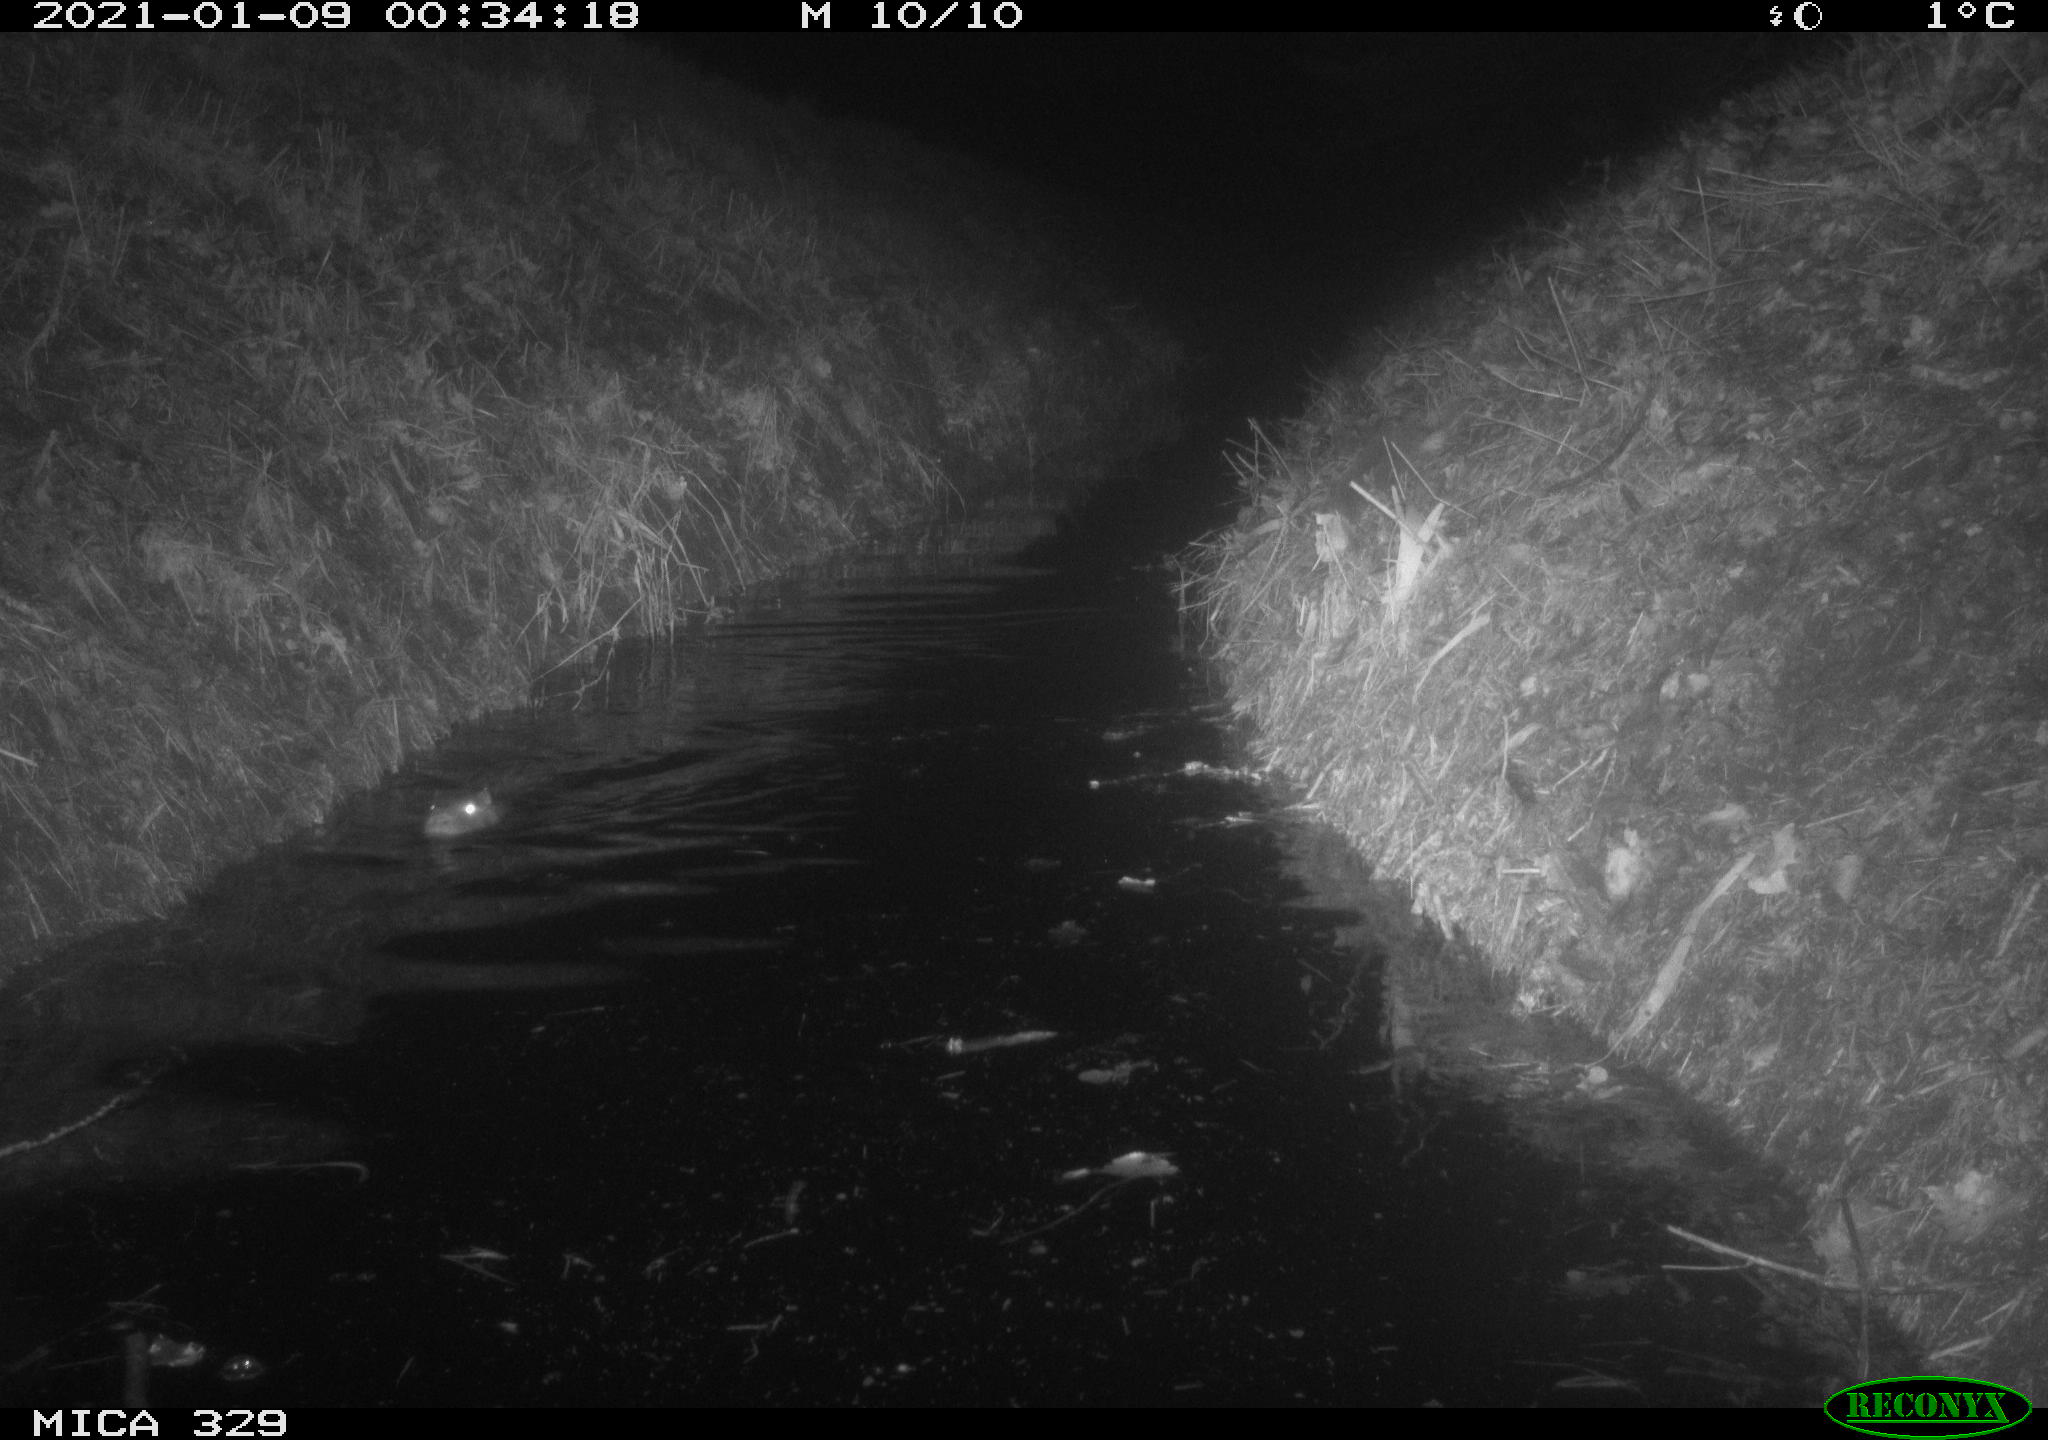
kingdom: Animalia
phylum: Chordata
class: Mammalia
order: Rodentia
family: Myocastoridae
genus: Myocastor
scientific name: Myocastor coypus
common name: Coypu
